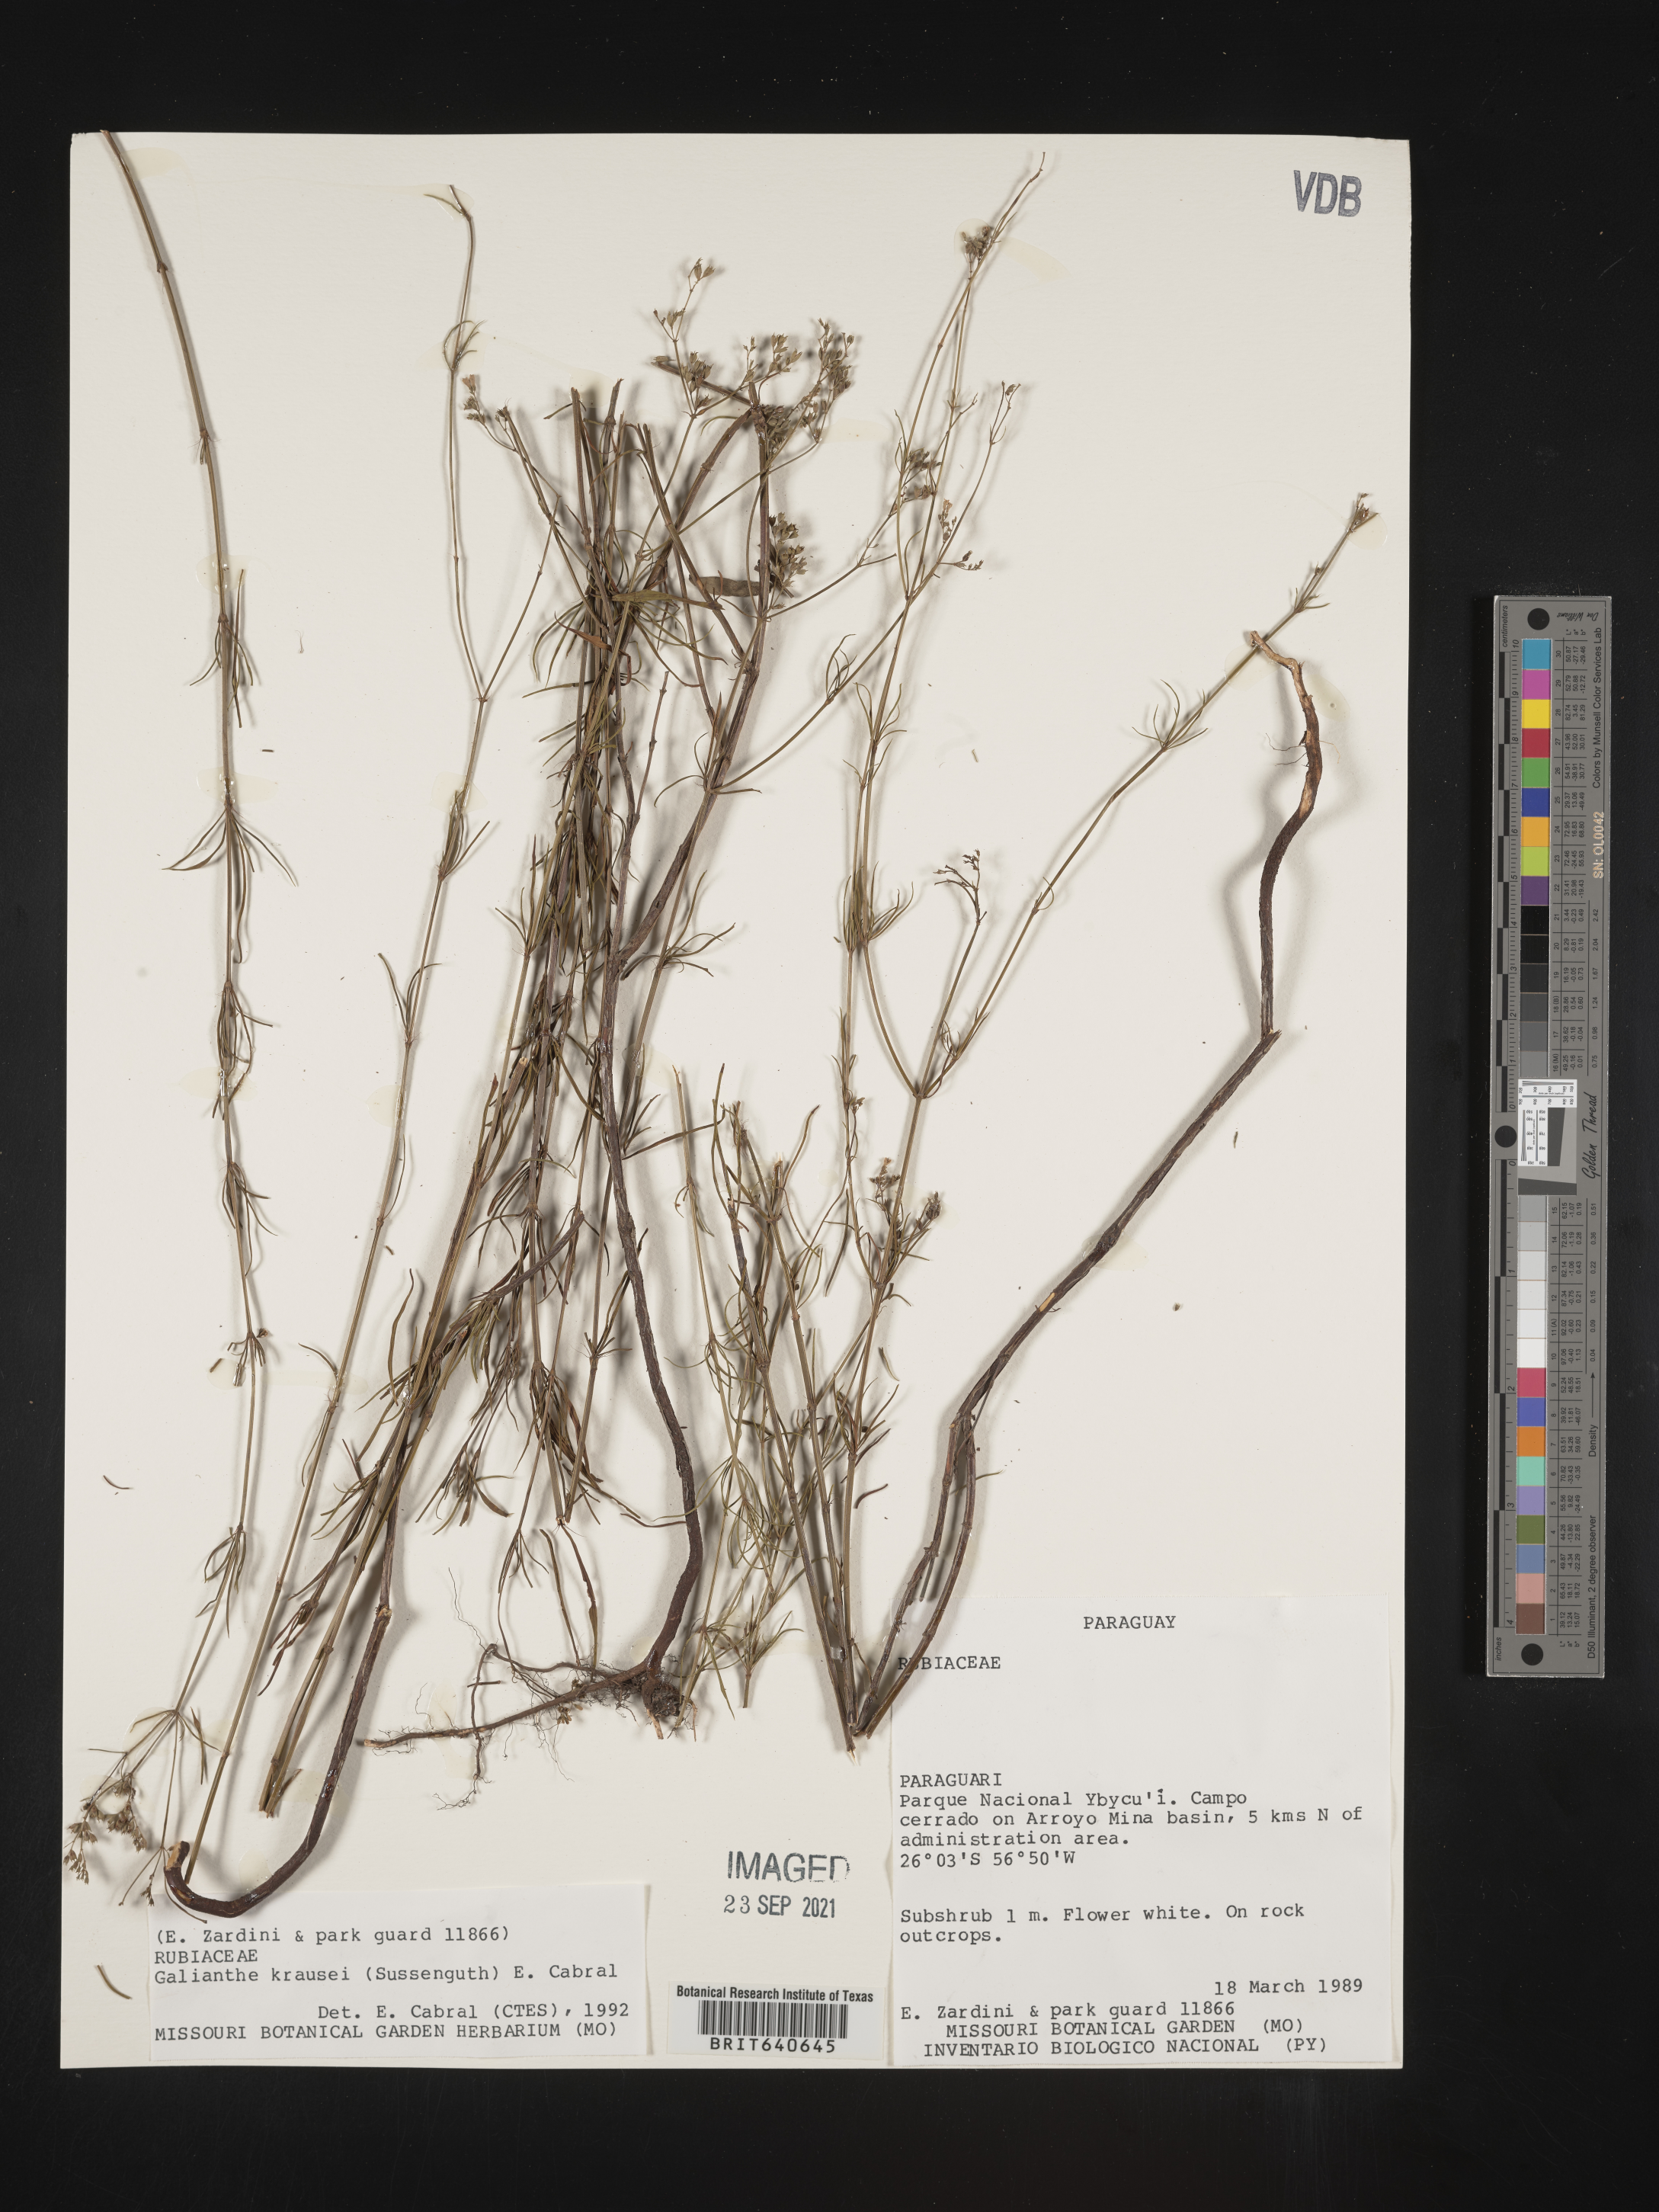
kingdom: Plantae
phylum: Tracheophyta
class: Magnoliopsida
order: Gentianales
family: Rubiaceae
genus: Galianthe
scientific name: Galianthe
